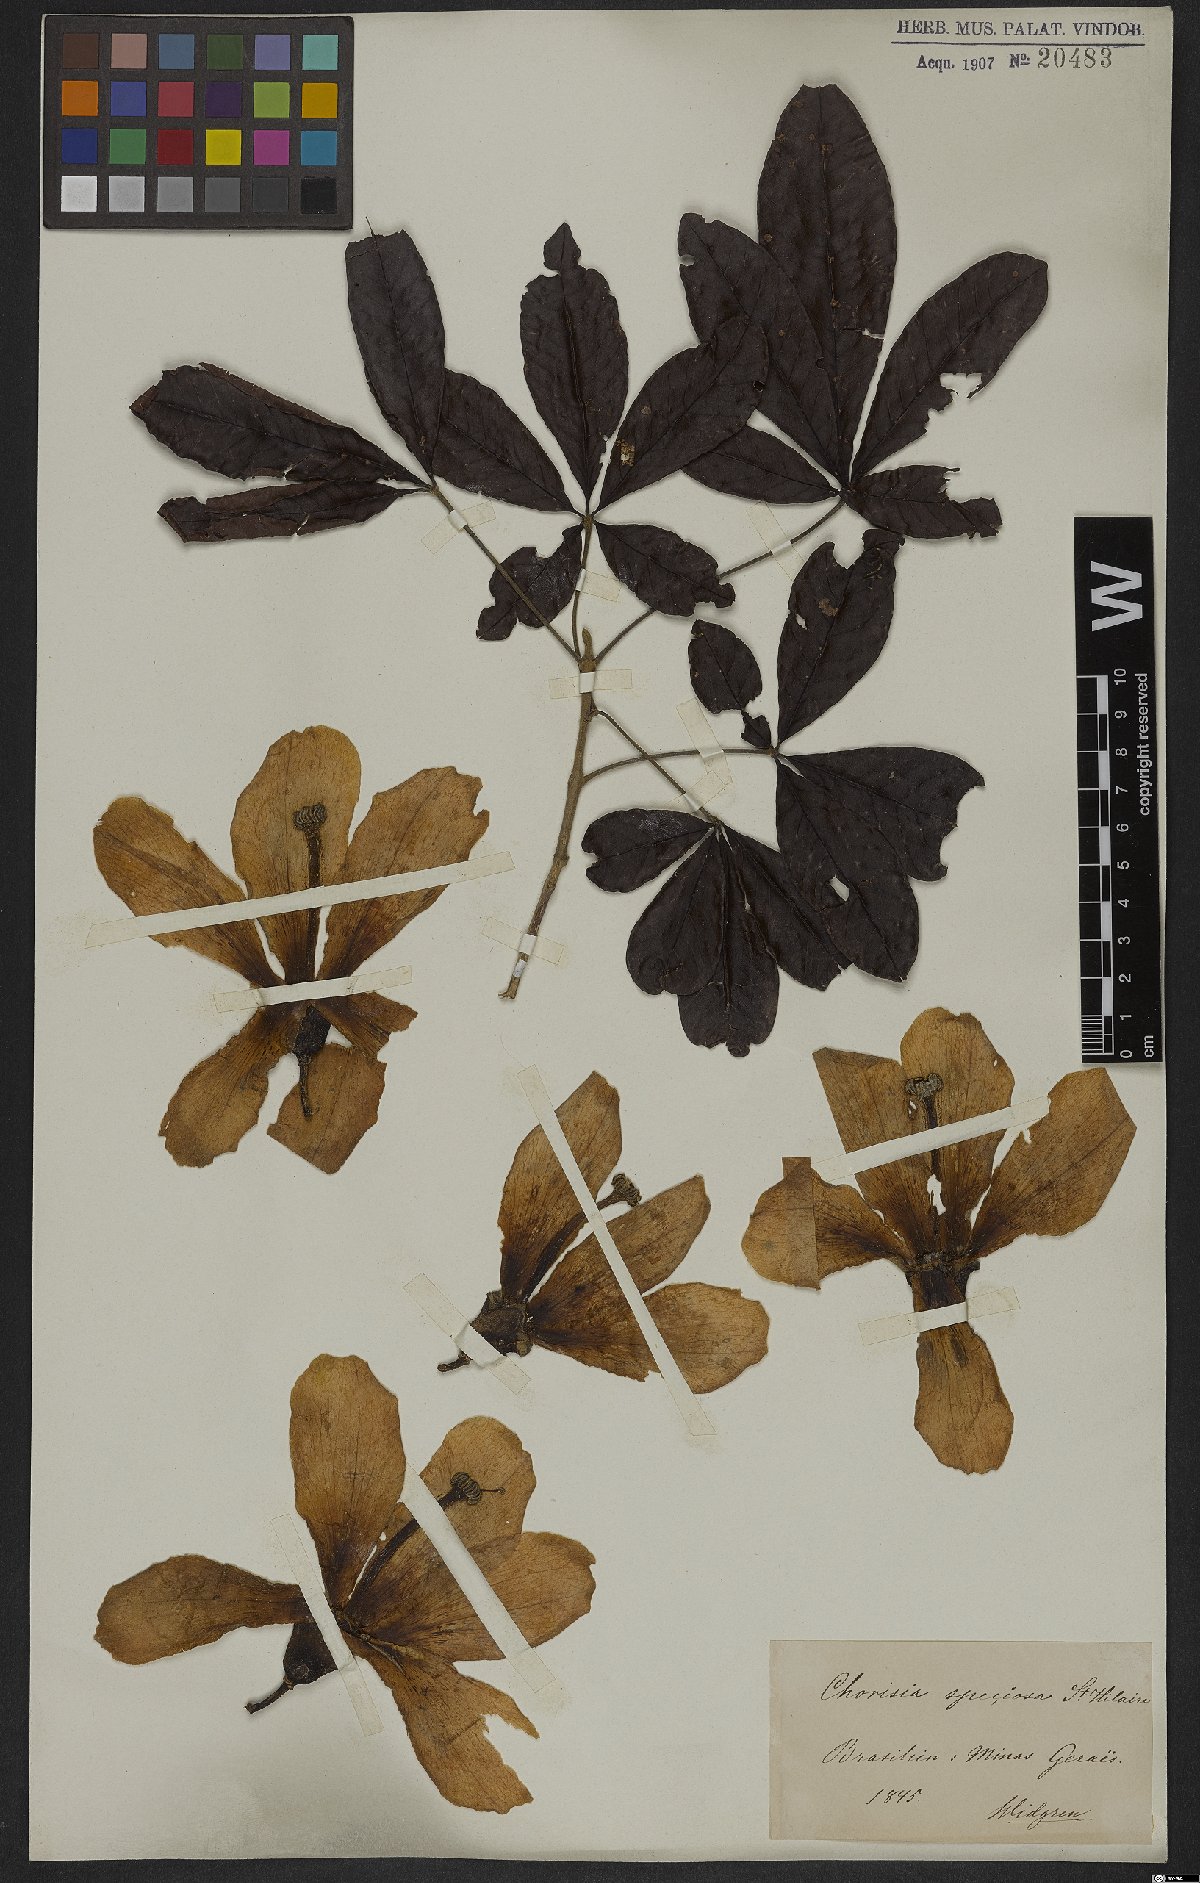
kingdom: Plantae
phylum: Tracheophyta
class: Magnoliopsida
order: Malvales
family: Malvaceae
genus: Ceiba
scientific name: Ceiba speciosa
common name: Silk-floss tree
